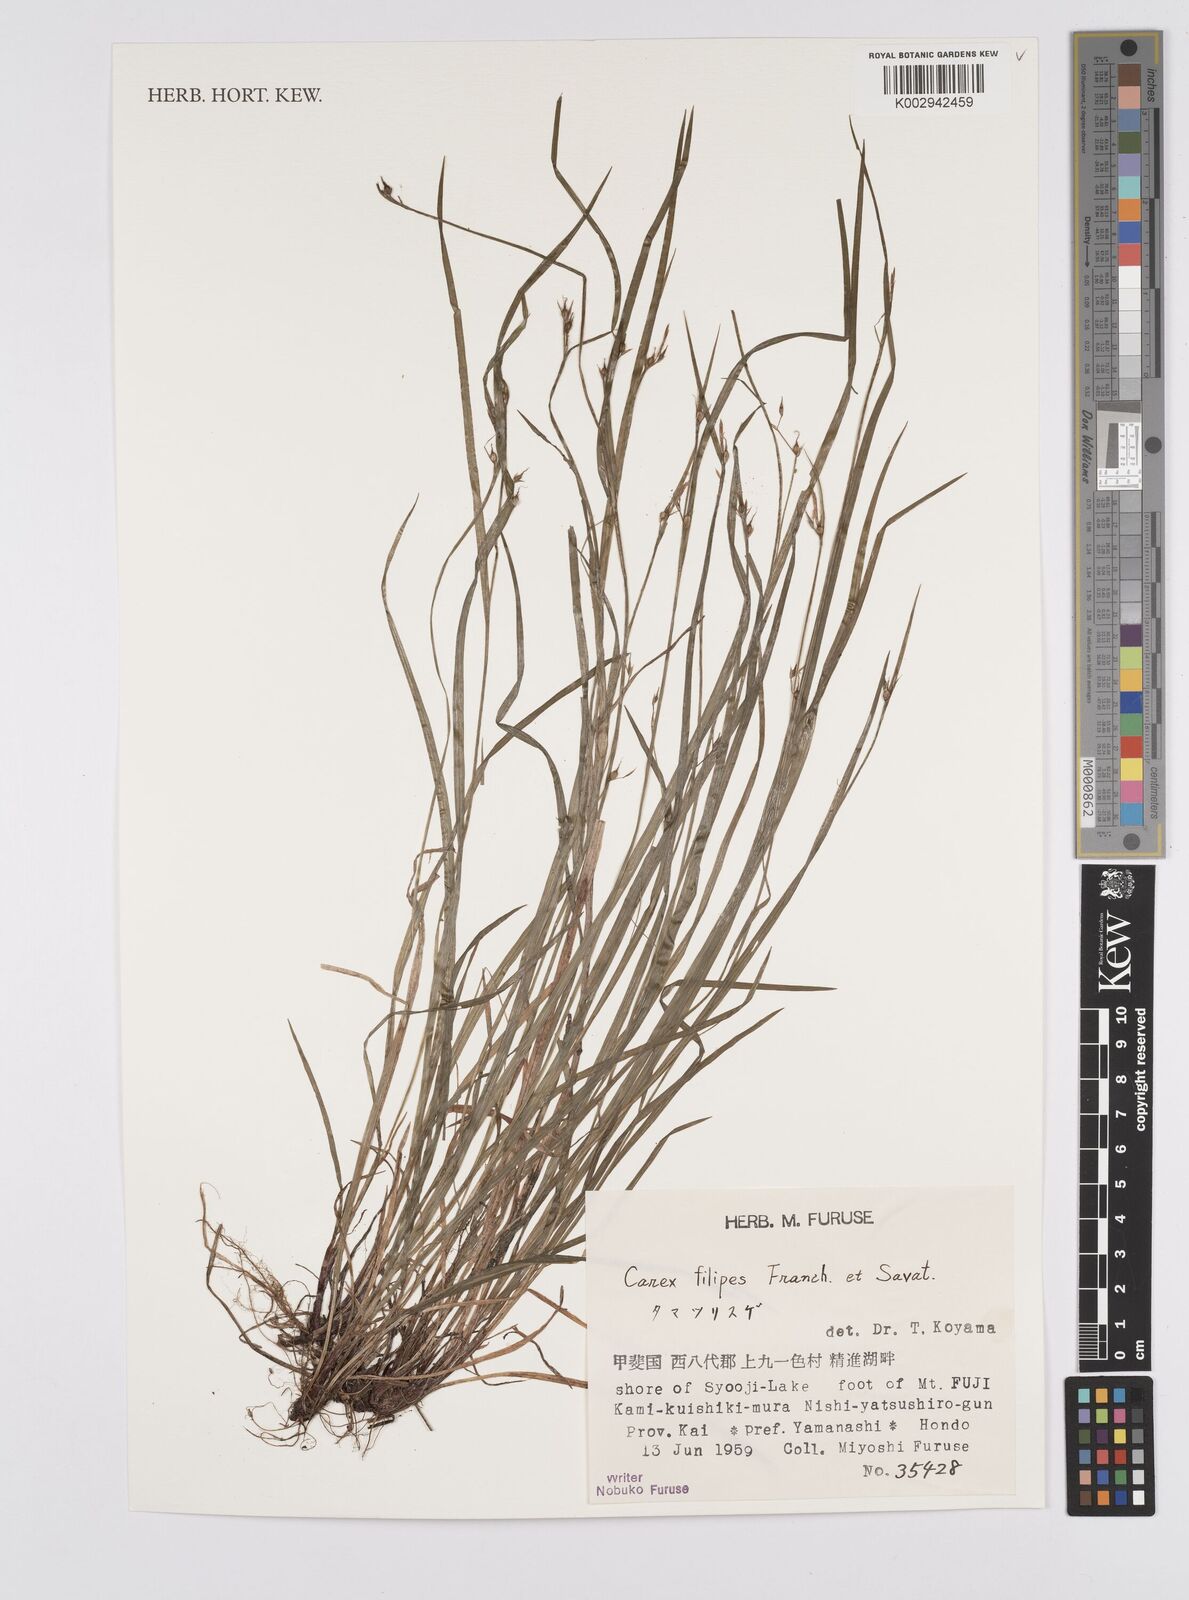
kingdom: Plantae
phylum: Tracheophyta
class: Liliopsida
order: Poales
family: Cyperaceae
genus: Carex
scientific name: Carex filipes
